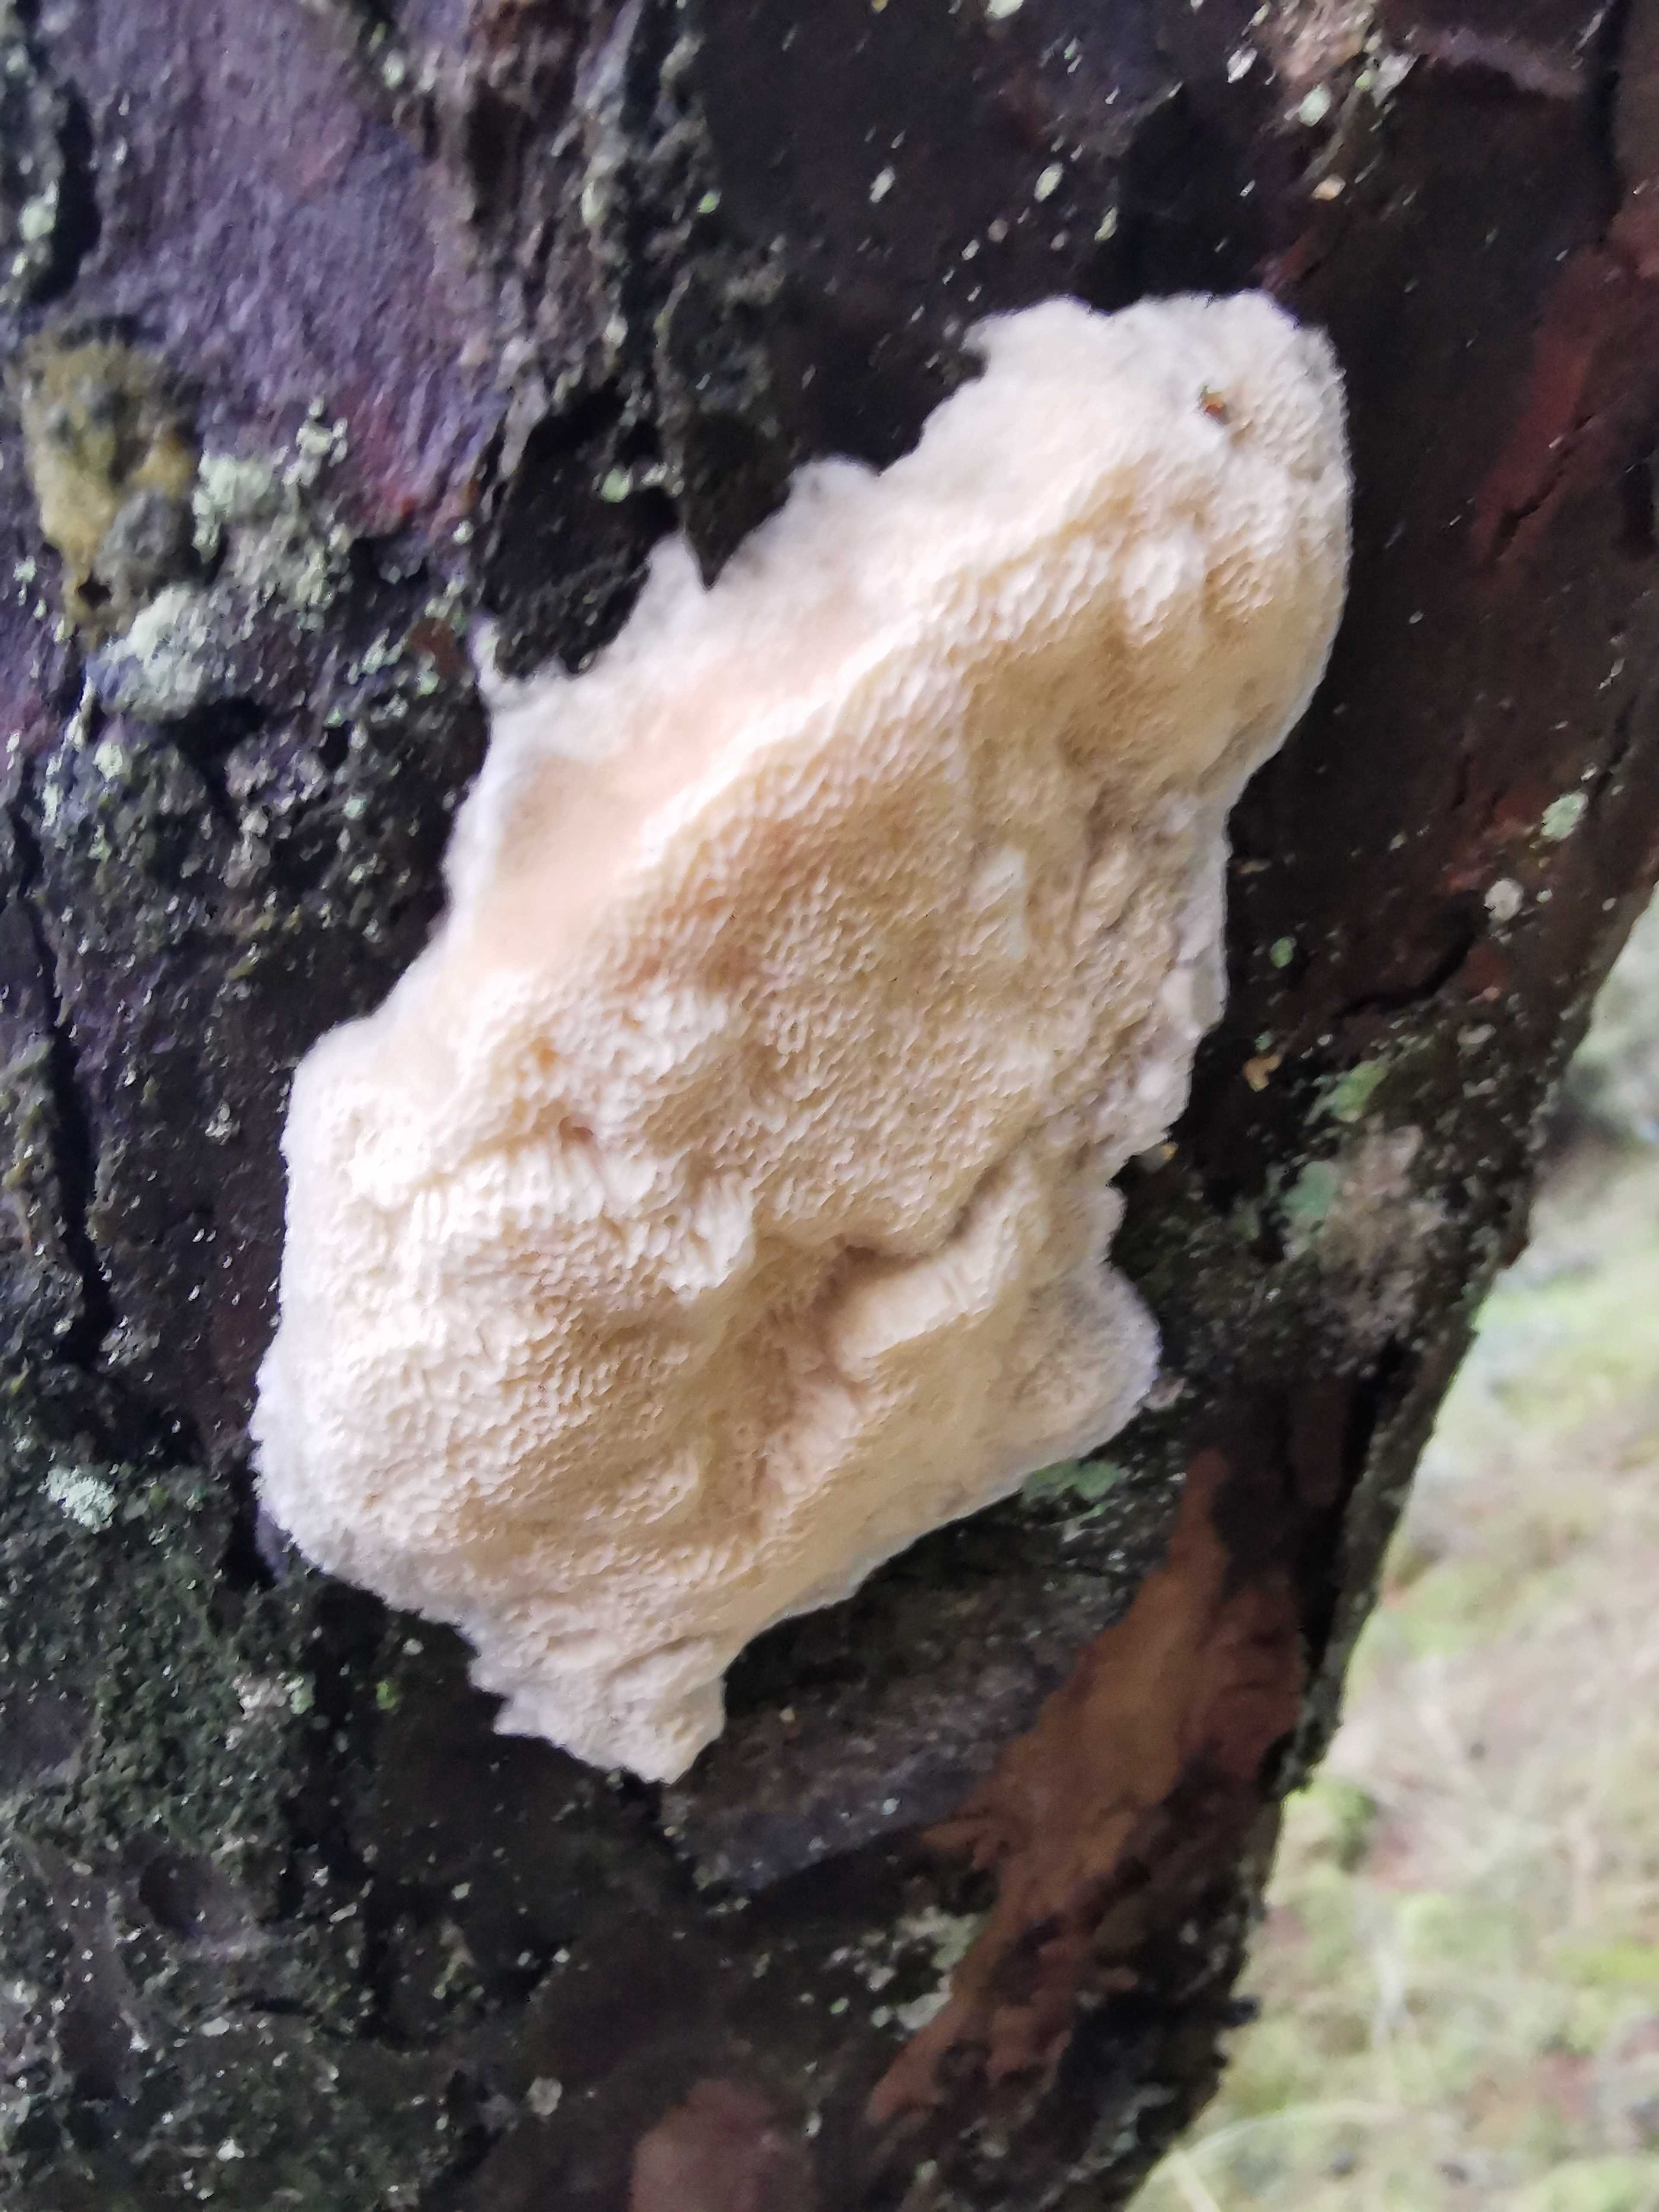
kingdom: Fungi
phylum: Basidiomycota
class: Agaricomycetes
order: Polyporales
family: Polyporaceae
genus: Diplomitoporus
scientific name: Diplomitoporus flavescens
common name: fyrre-elastikporesvamp
